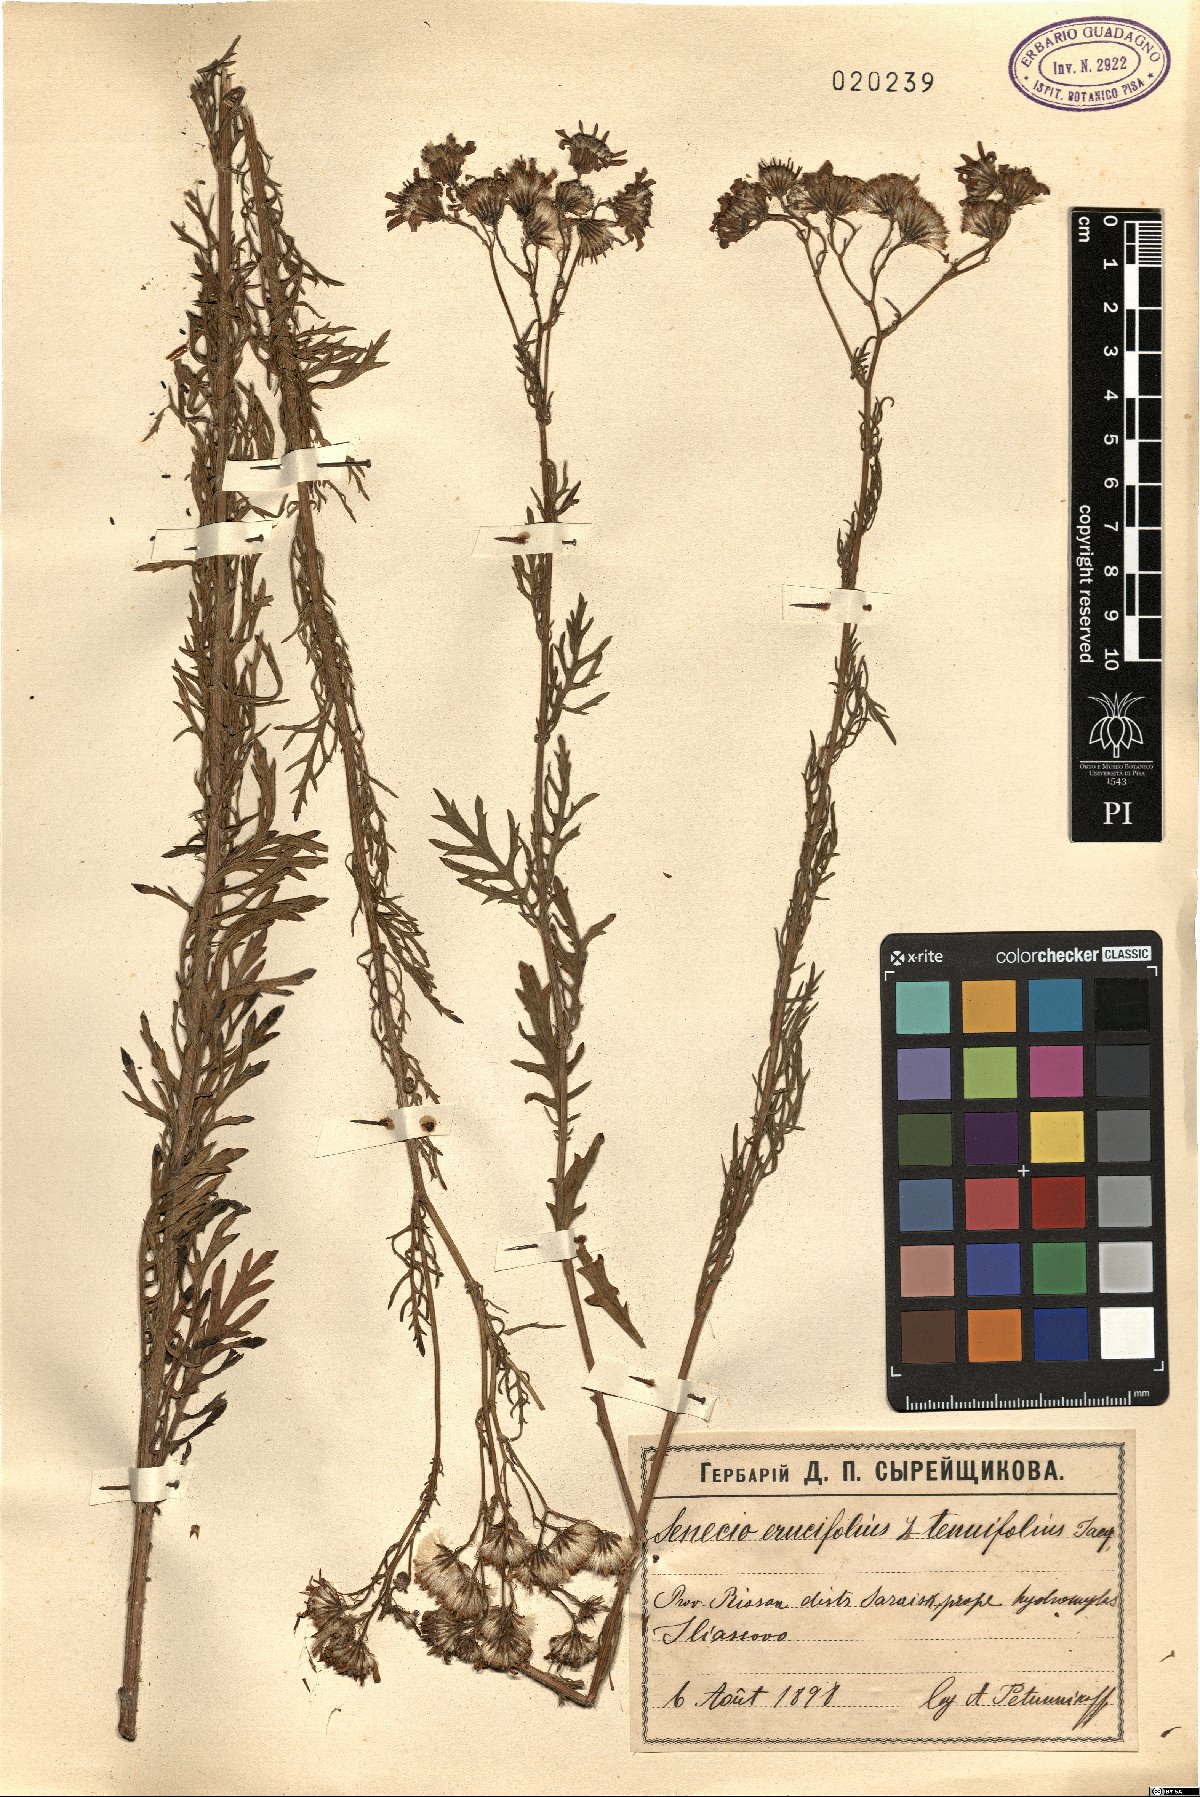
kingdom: Plantae
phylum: Tracheophyta
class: Magnoliopsida
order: Asterales
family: Asteraceae
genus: Jacobaea
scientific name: Jacobaea erucifolia
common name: Hoary ragwort
